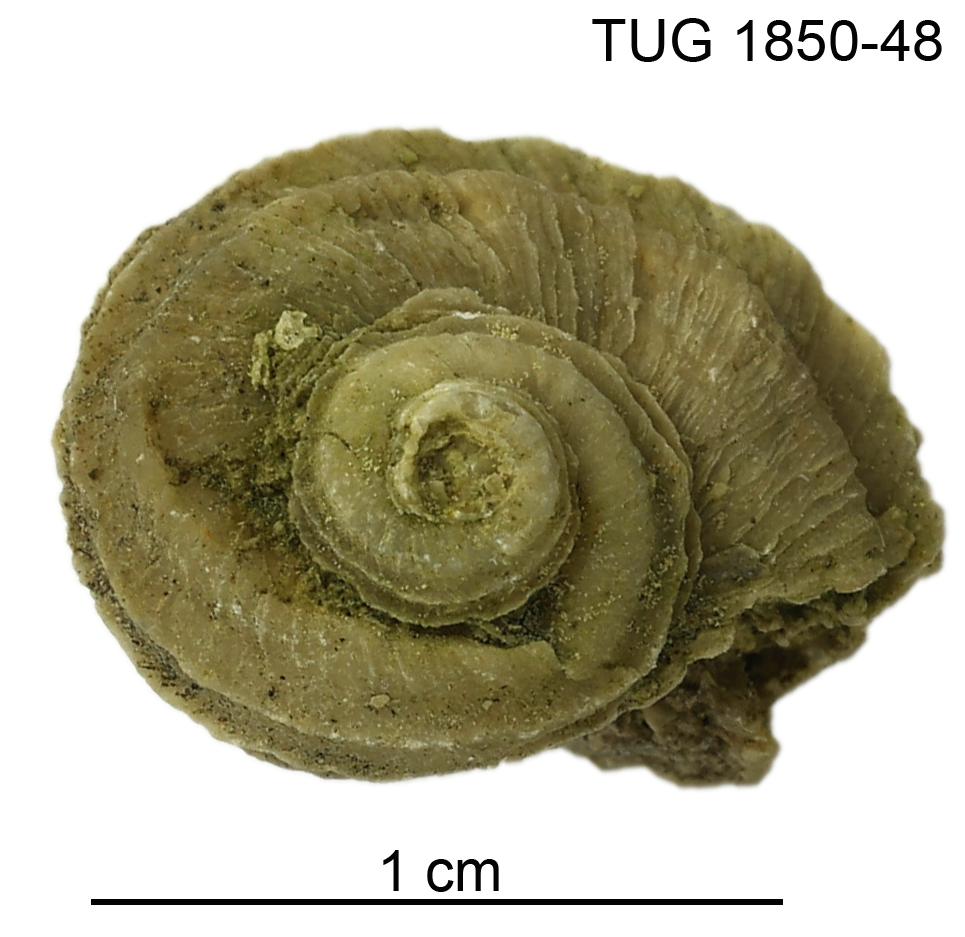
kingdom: Animalia
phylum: Mollusca
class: Gastropoda
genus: Crenilunula
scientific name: Crenilunula
